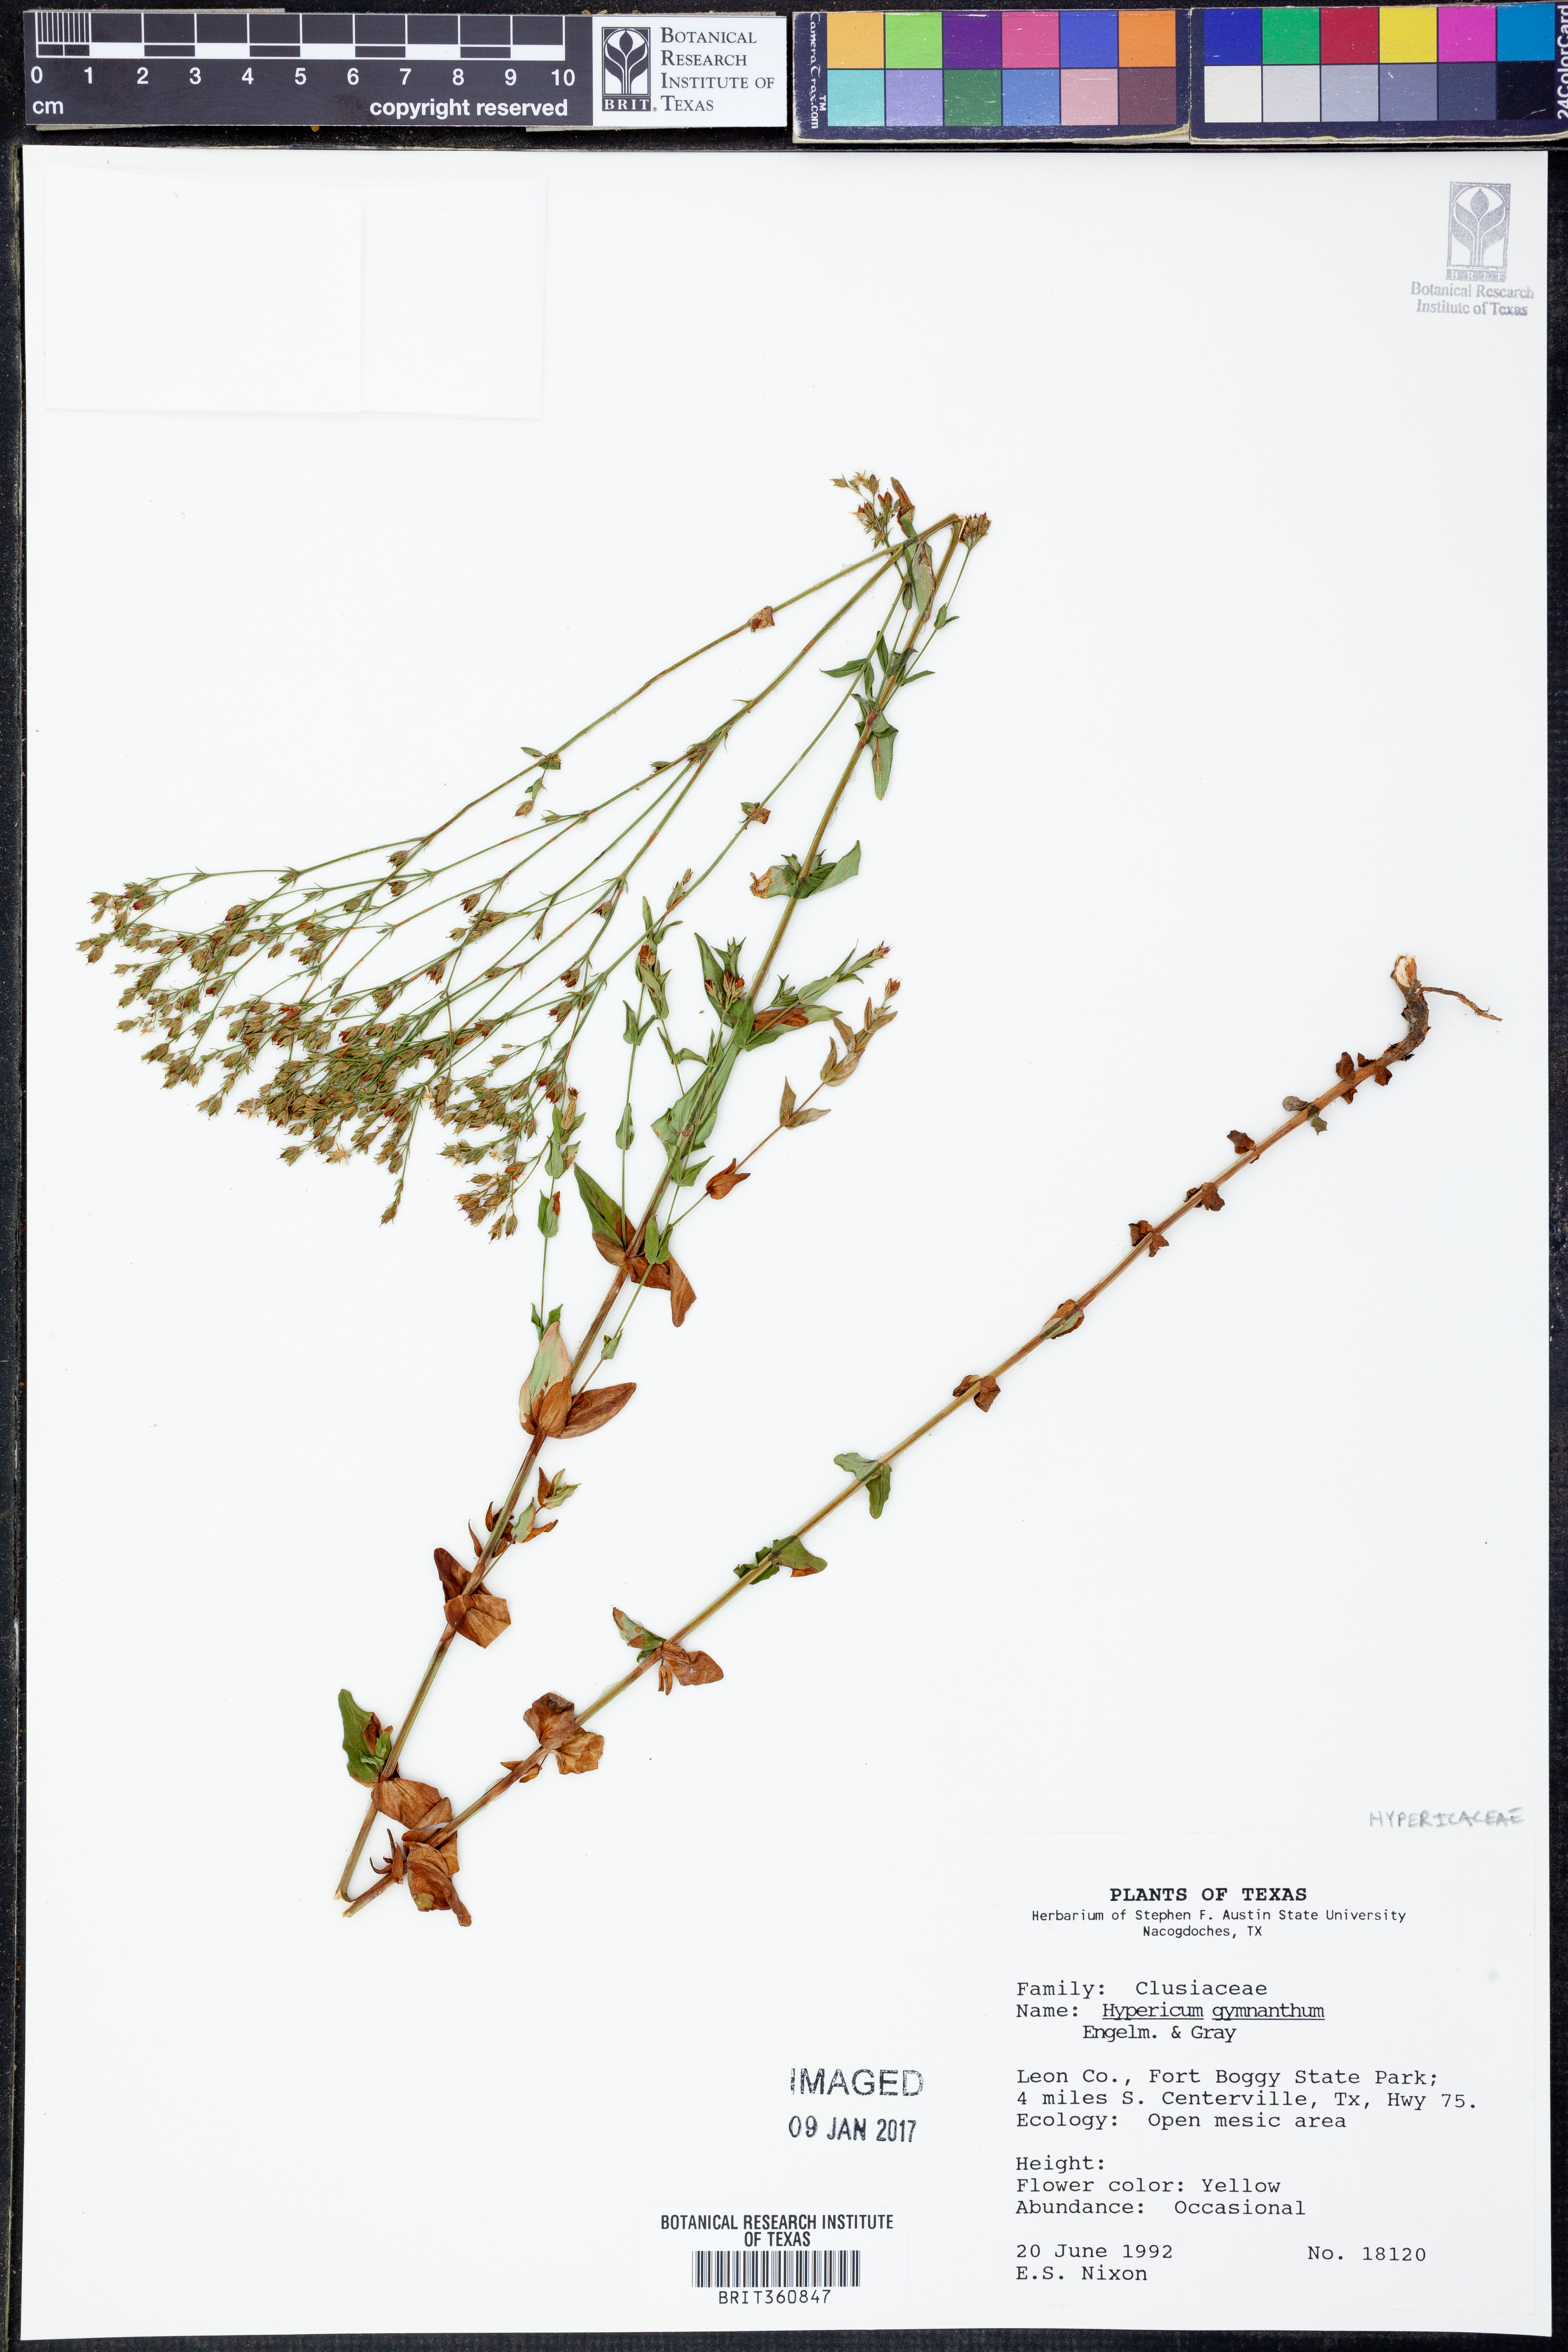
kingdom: Plantae
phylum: Tracheophyta
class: Magnoliopsida
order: Malpighiales
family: Hypericaceae
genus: Hypericum
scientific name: Hypericum gymnanthum
